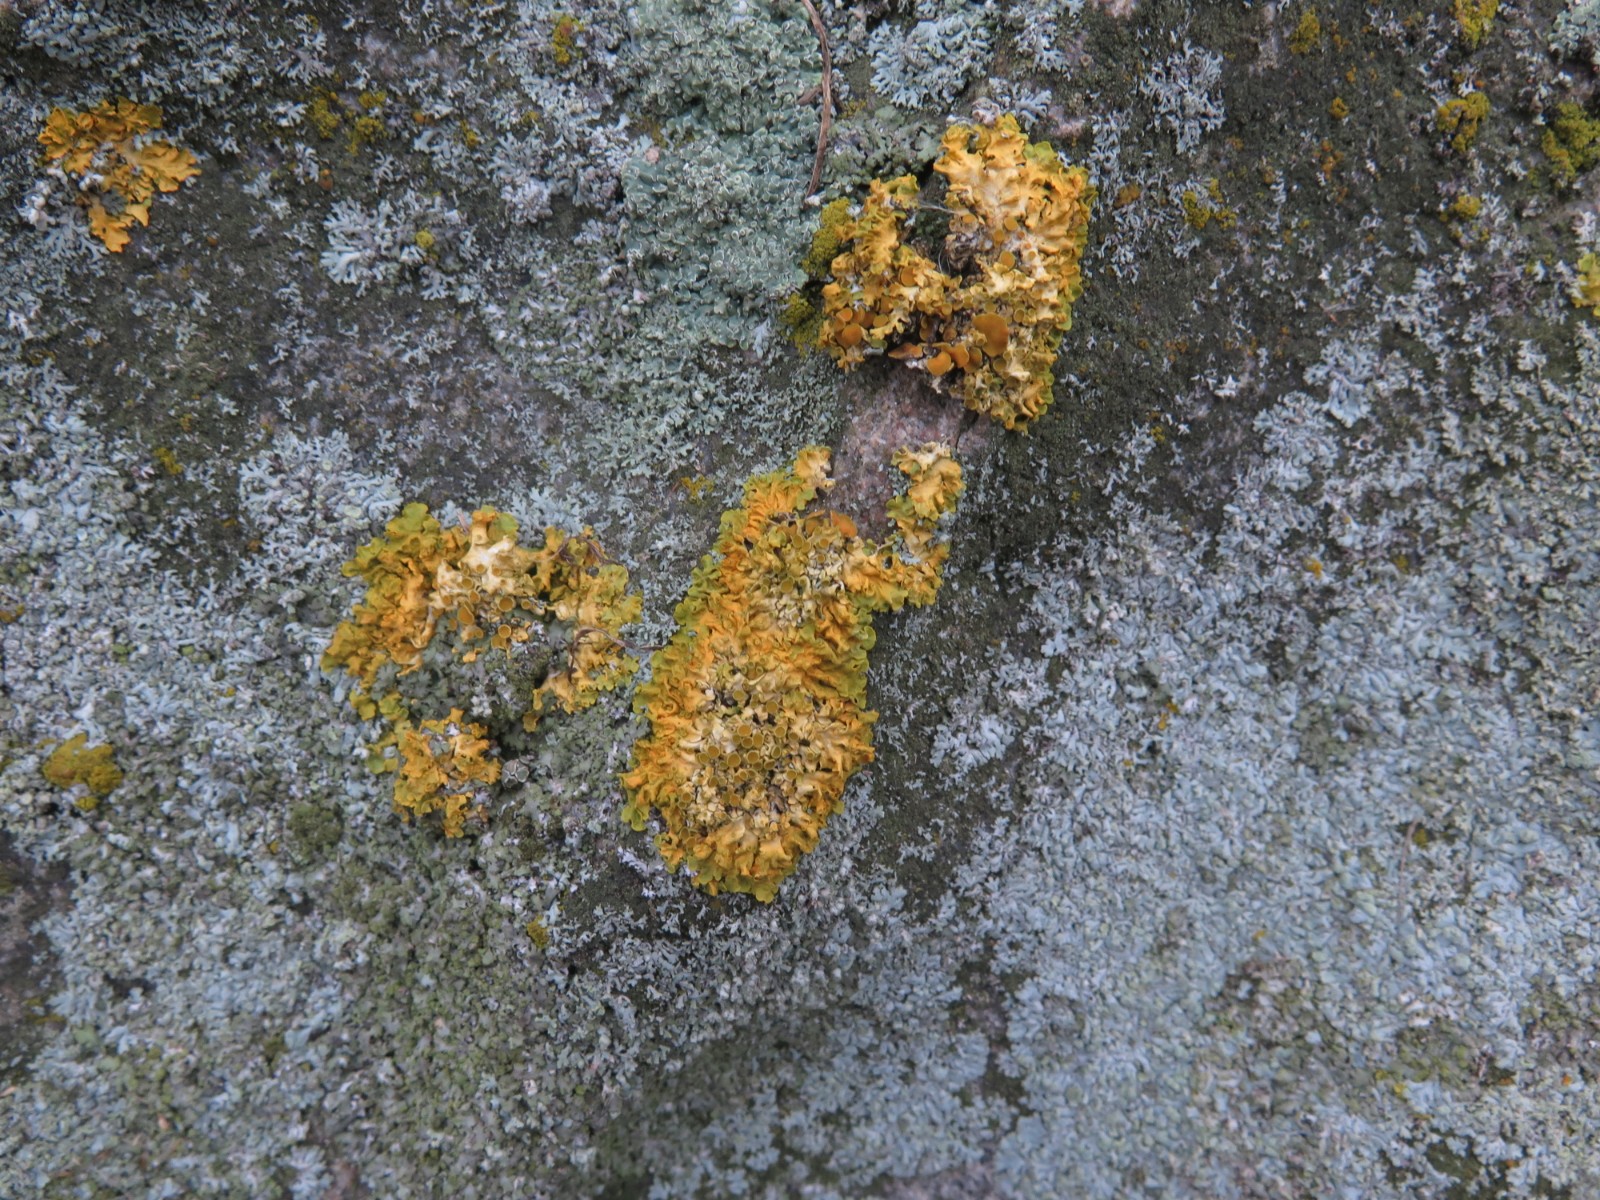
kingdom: Fungi
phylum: Ascomycota
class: Lecanoromycetes
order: Teloschistales
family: Teloschistaceae
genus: Xanthoria
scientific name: Xanthoria parietina
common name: almindelig væggelav
